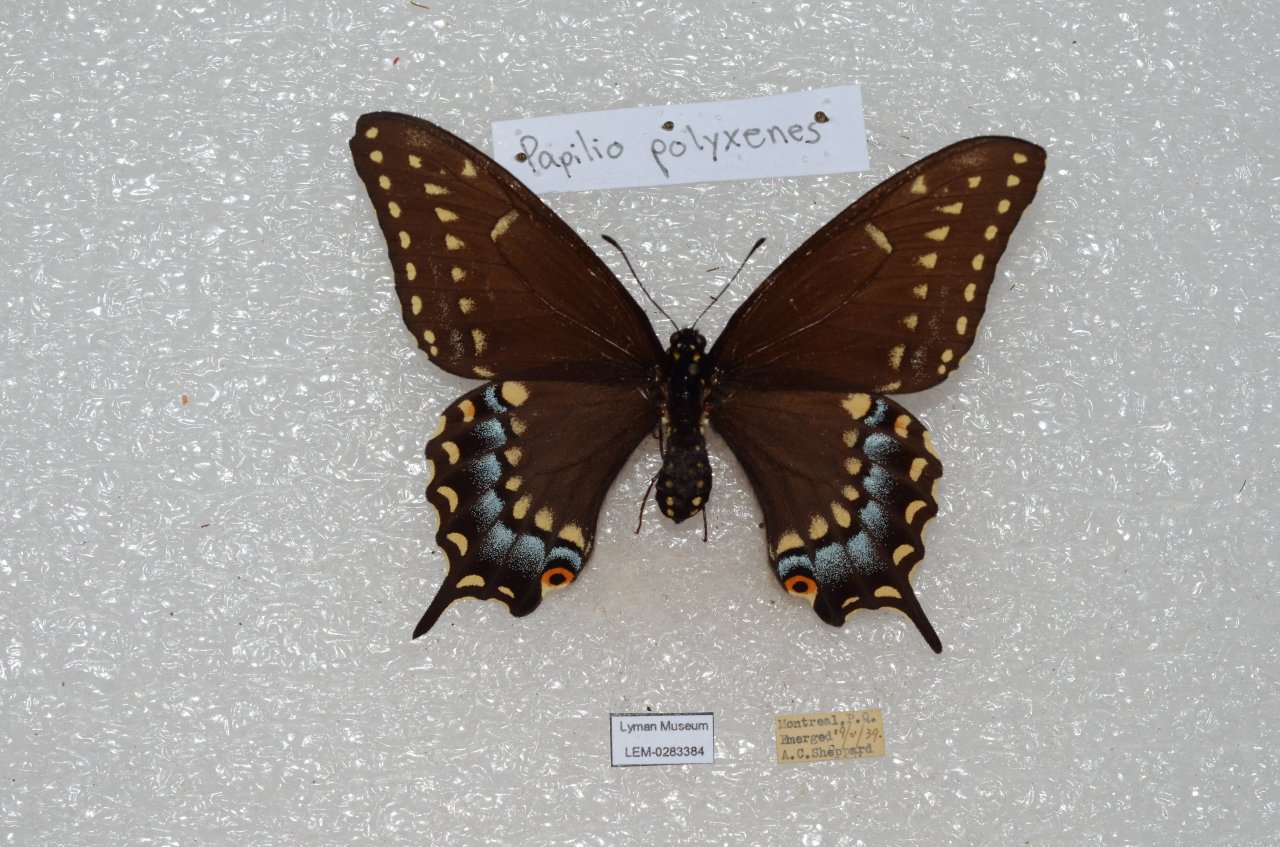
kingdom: Animalia
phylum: Arthropoda
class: Insecta
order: Lepidoptera
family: Papilionidae
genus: Papilio
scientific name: Papilio polyxenes
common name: Black Swallowtail
